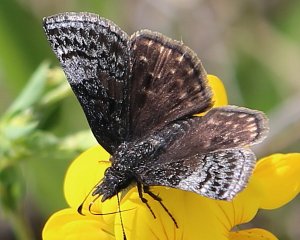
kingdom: Animalia
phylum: Arthropoda
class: Insecta
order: Lepidoptera
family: Hesperiidae
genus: Erynnis
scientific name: Erynnis icelus
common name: Dreamy Duskywing
